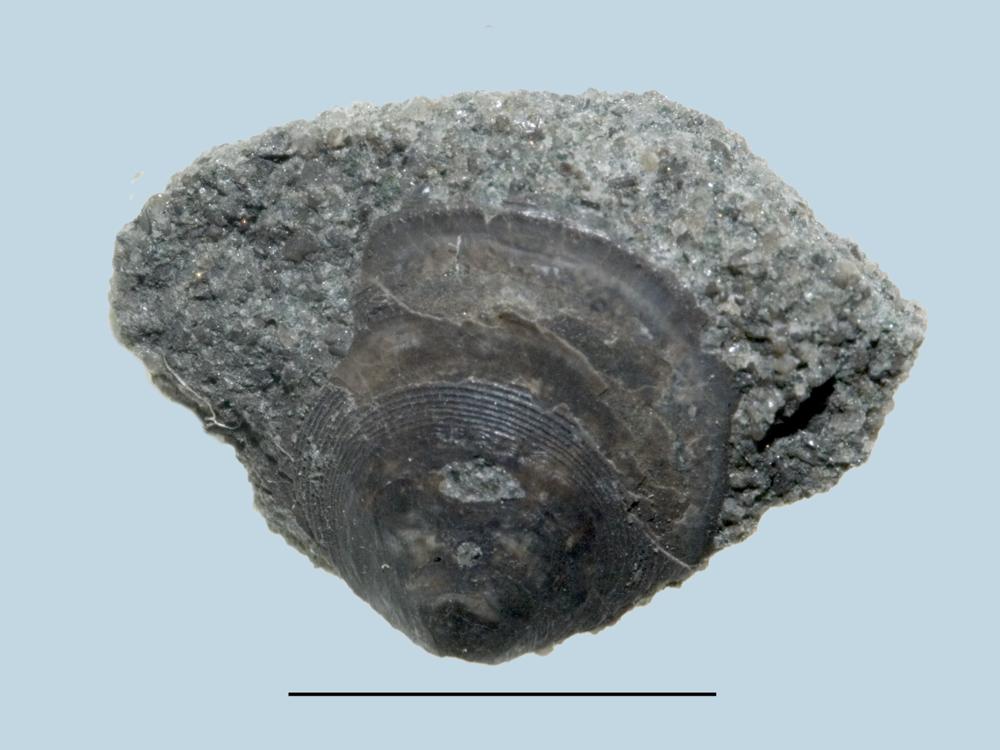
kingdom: Animalia
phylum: Brachiopoda
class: Lingulata
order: Lingulida
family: Zhanatellidae
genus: Thysanotos
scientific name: Thysanotos
